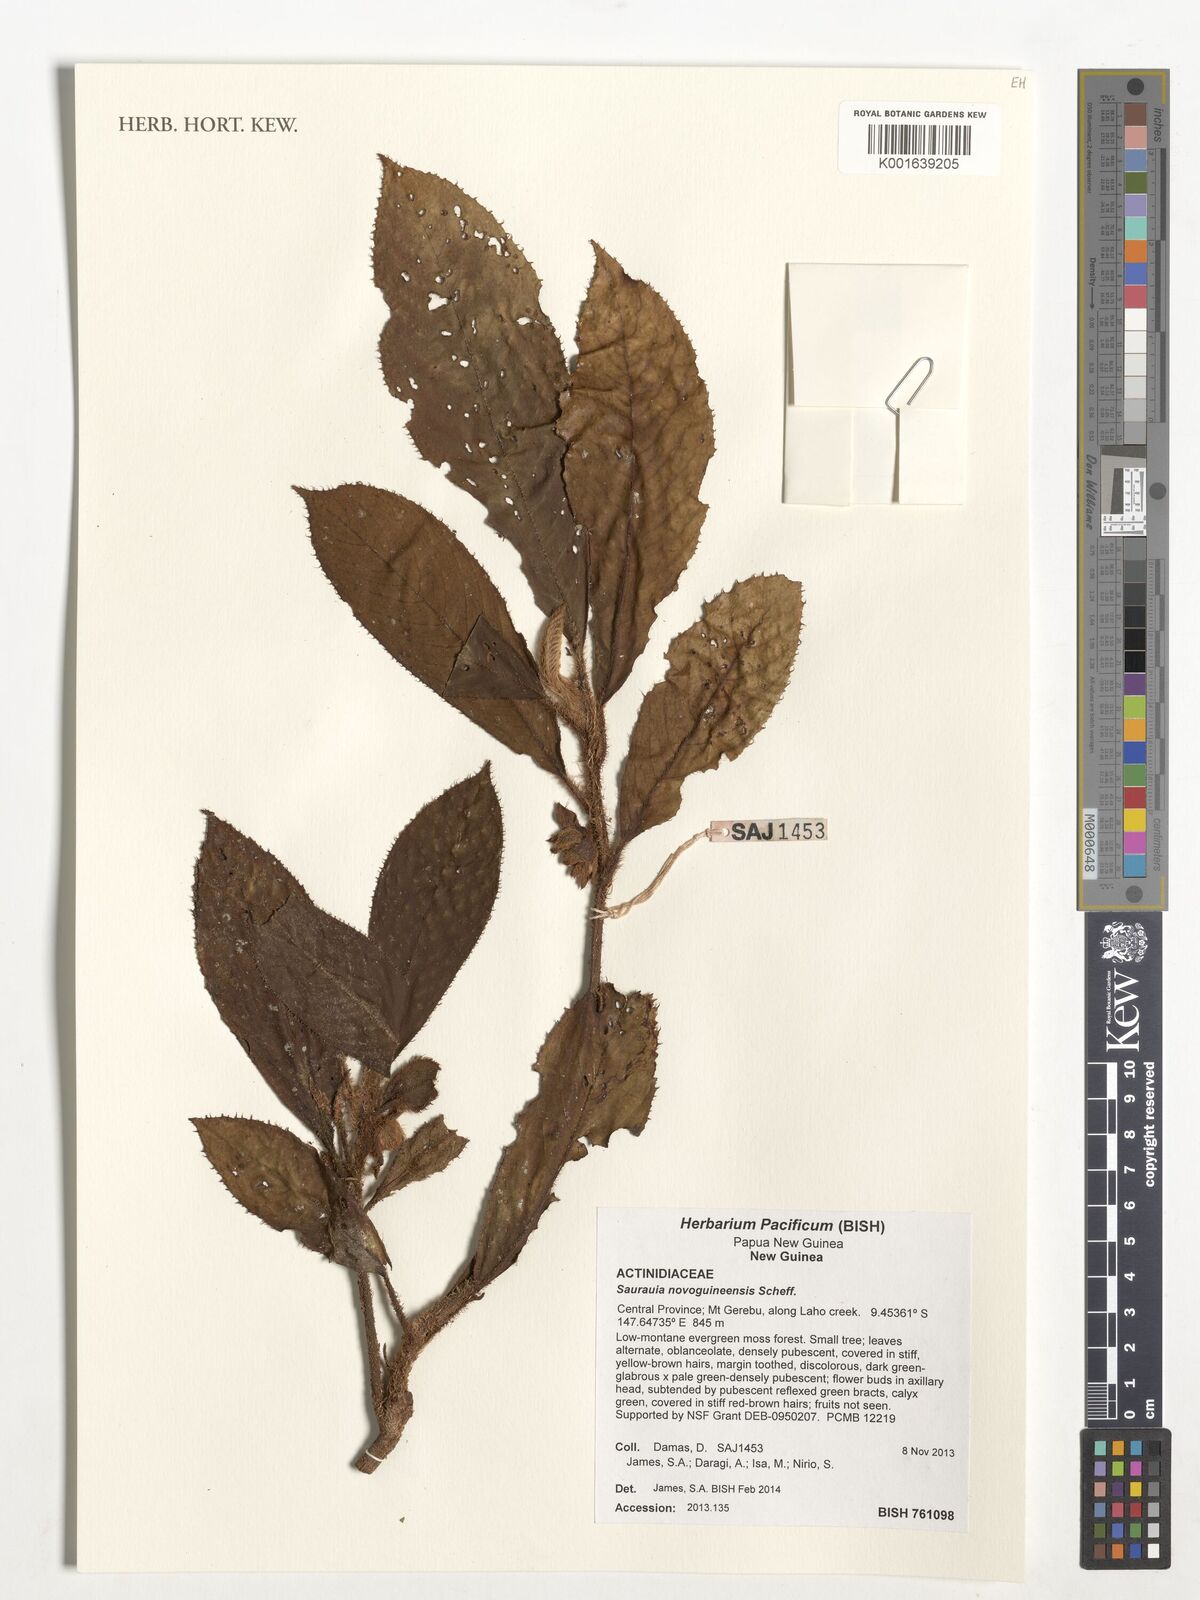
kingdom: Plantae
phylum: Tracheophyta
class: Magnoliopsida
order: Ericales
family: Actinidiaceae
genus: Saurauia
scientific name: Saurauia novoguineensis
